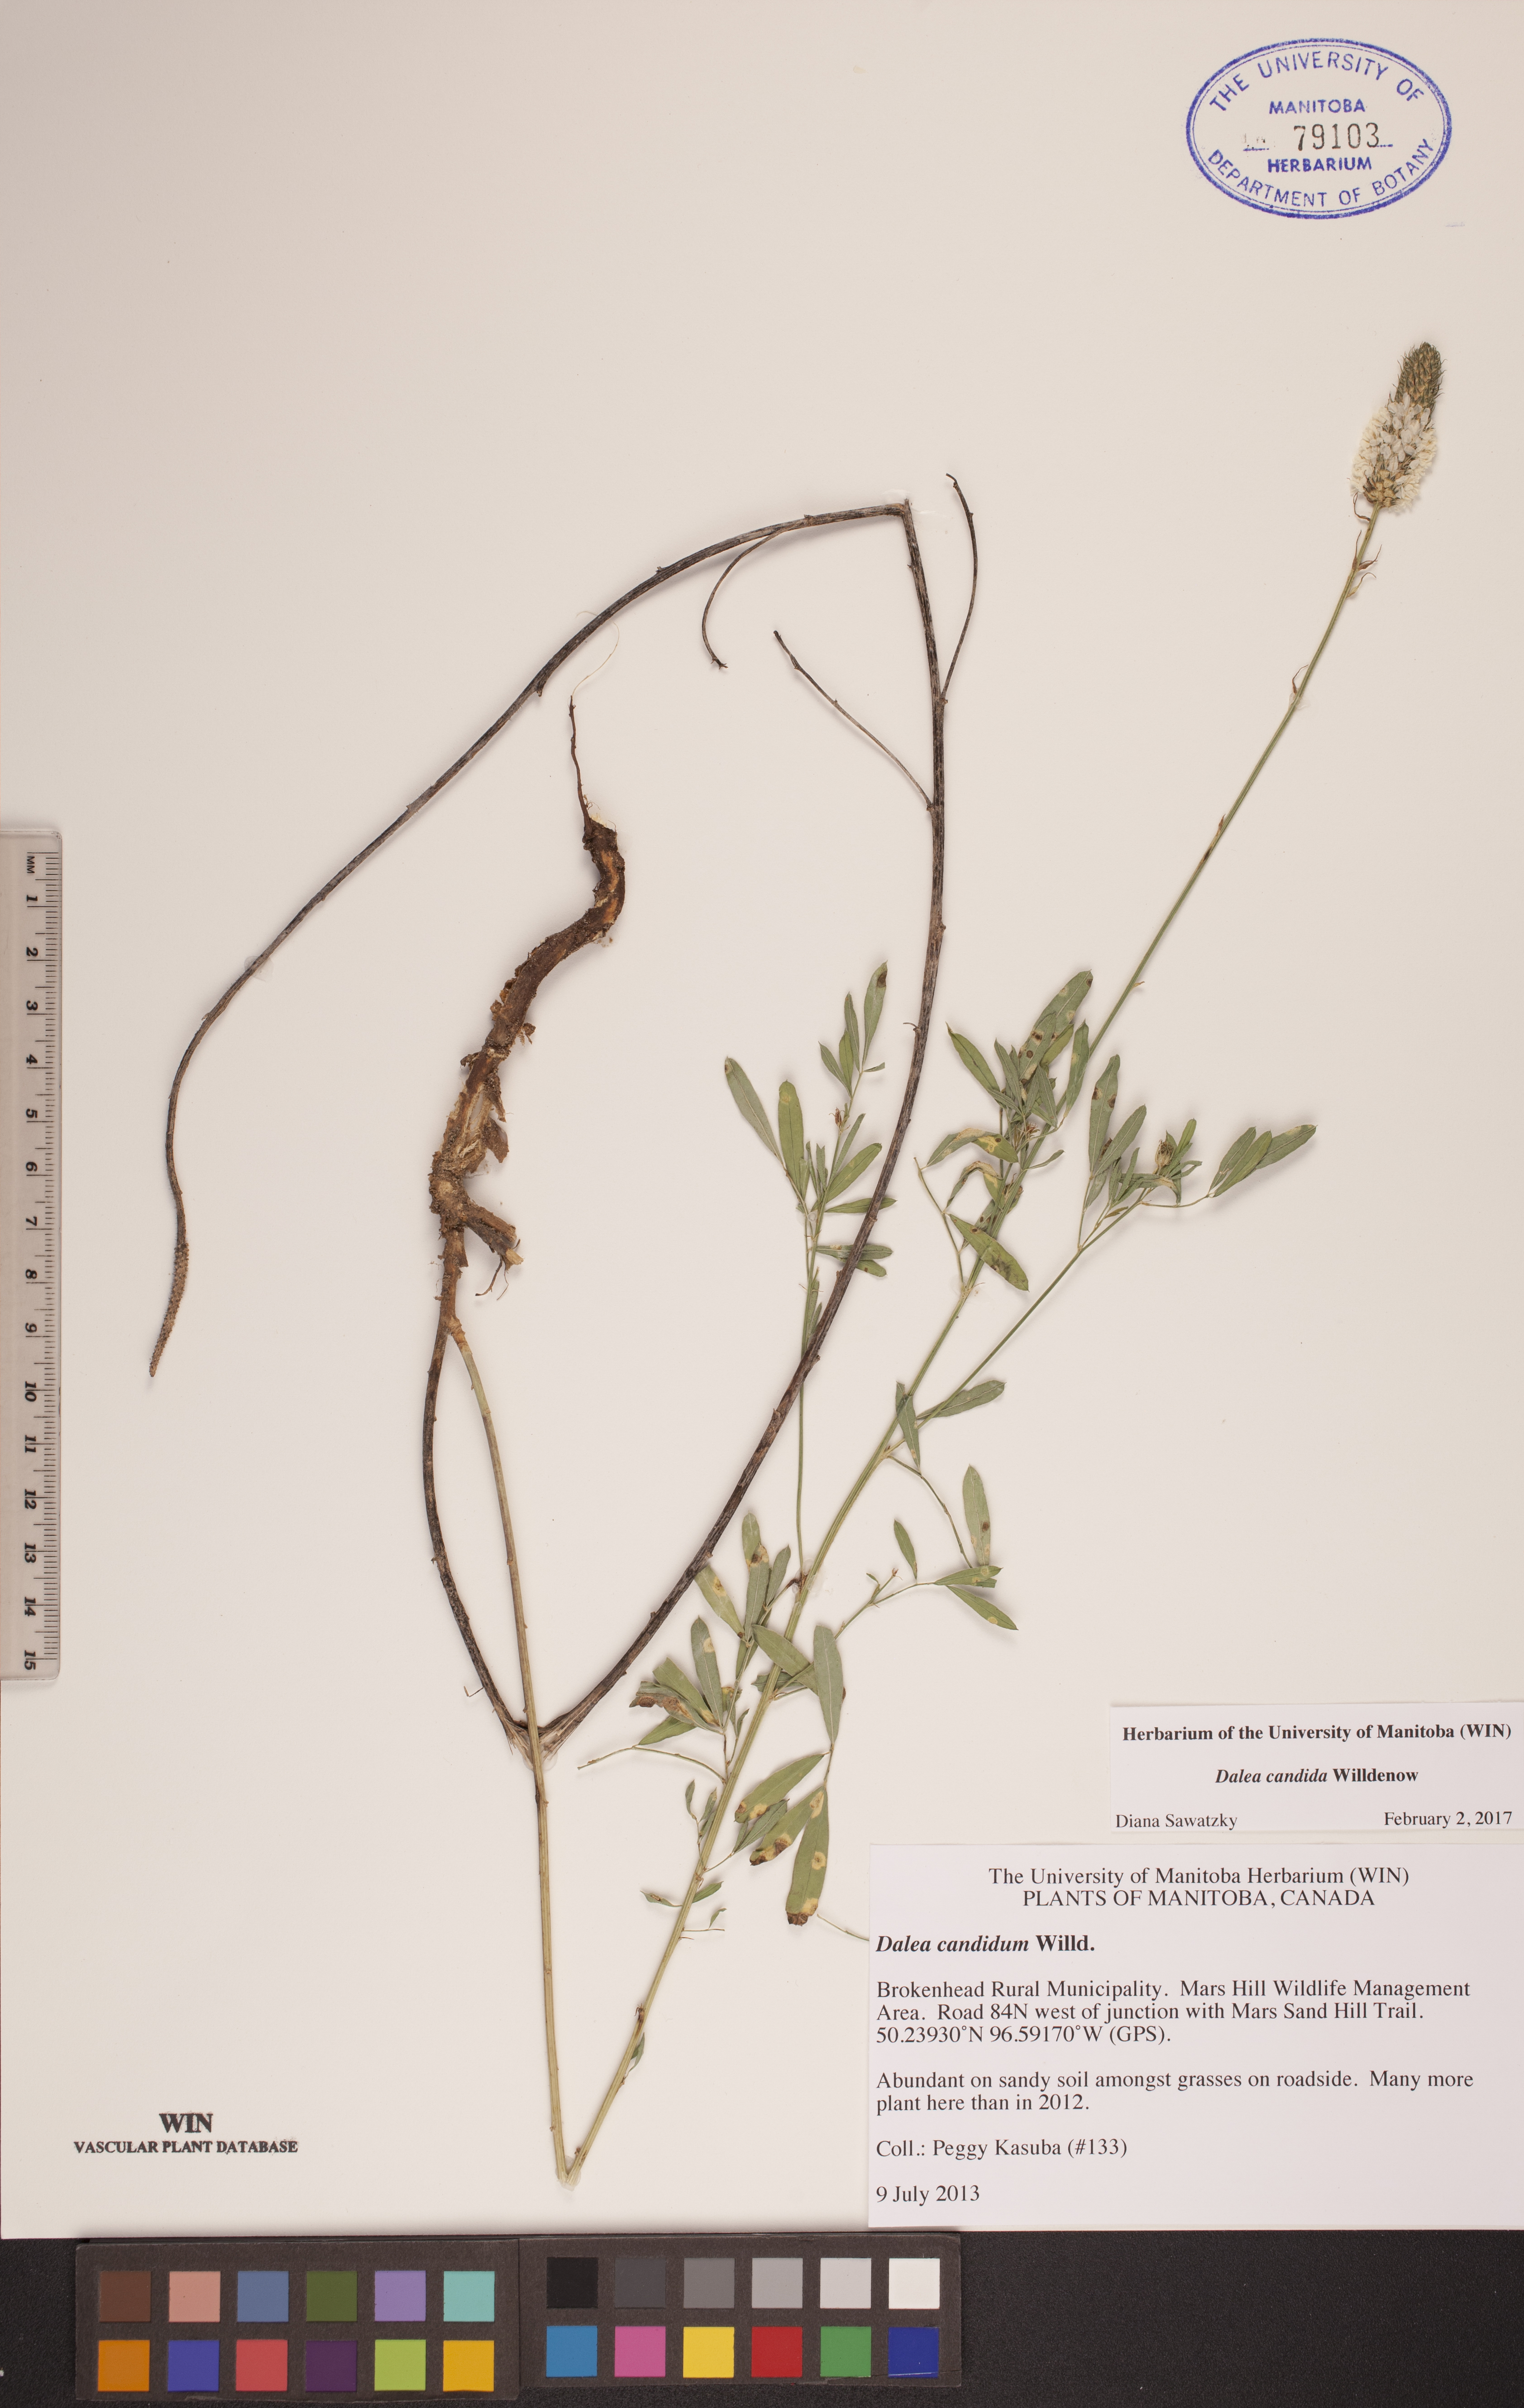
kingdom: Plantae
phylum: Tracheophyta
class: Magnoliopsida
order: Fabales
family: Fabaceae
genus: Dalea
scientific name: Dalea candida
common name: White prairie-clover
